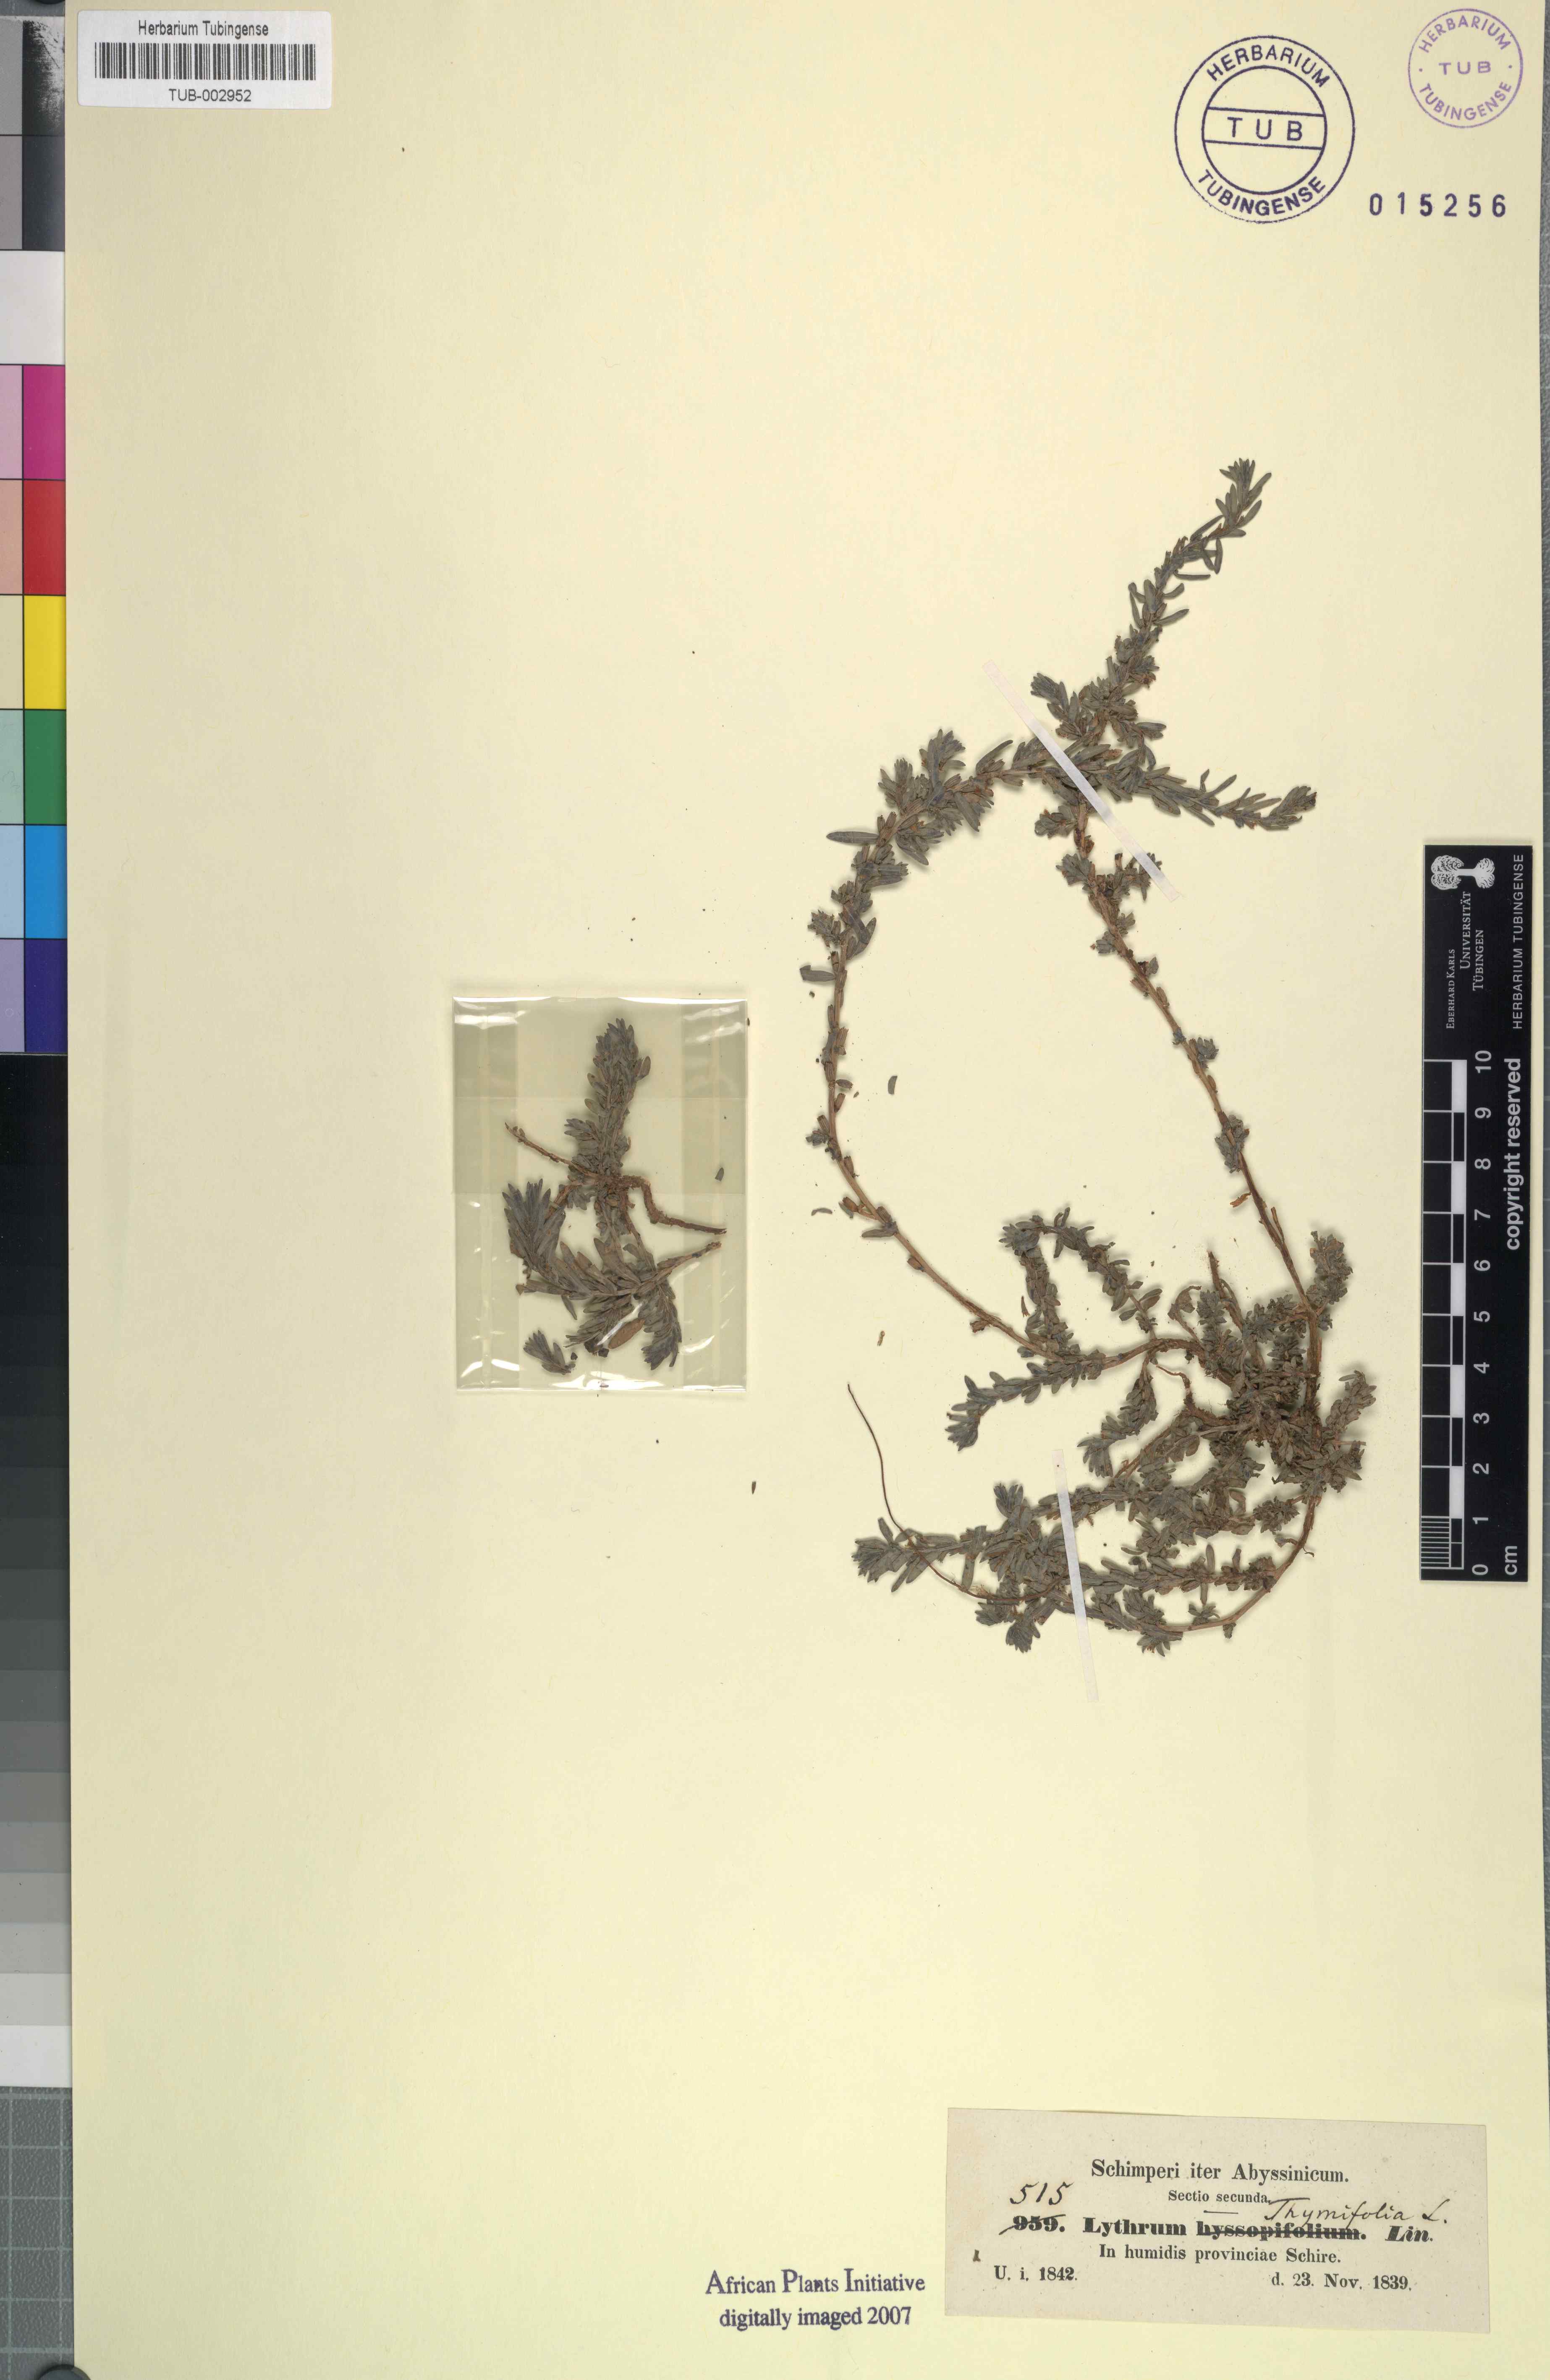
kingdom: Plantae
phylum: Tracheophyta
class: Magnoliopsida
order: Myrtales
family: Lythraceae
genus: Lythrum
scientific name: Lythrum thymifolia
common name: Thymeleaf loosestrife
